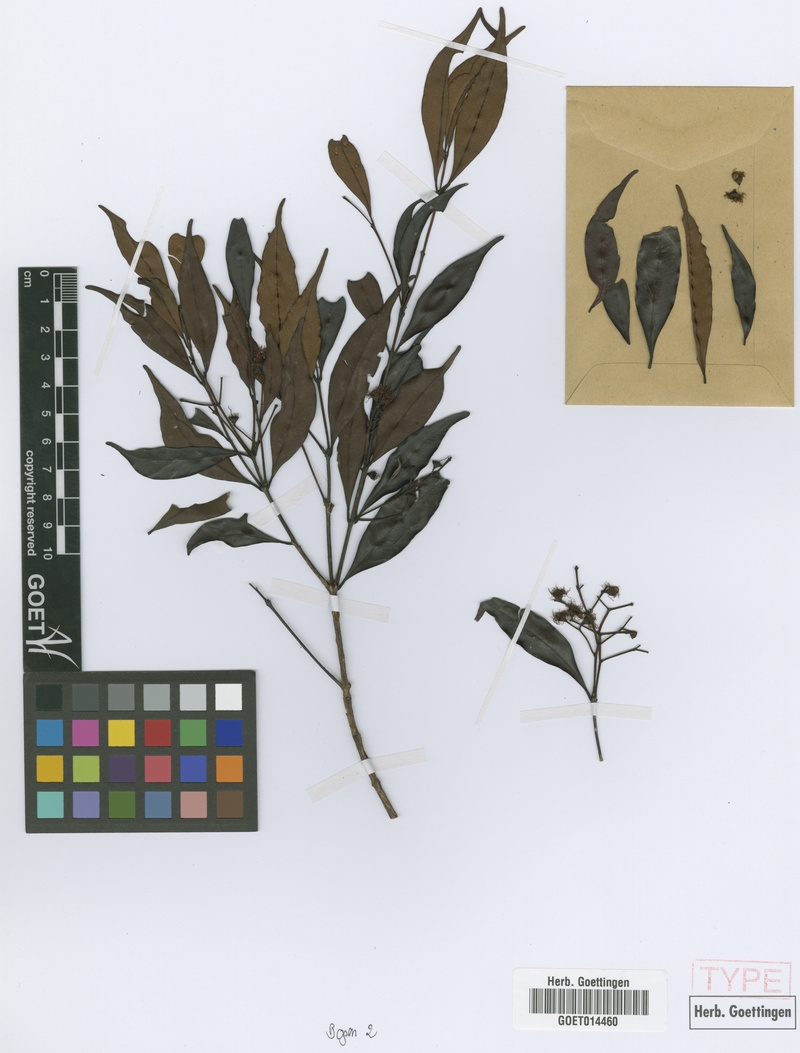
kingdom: Plantae
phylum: Tracheophyta
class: Magnoliopsida
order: Myrtales
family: Myrtaceae
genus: Syzygium
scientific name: Syzygium myrtifolium
